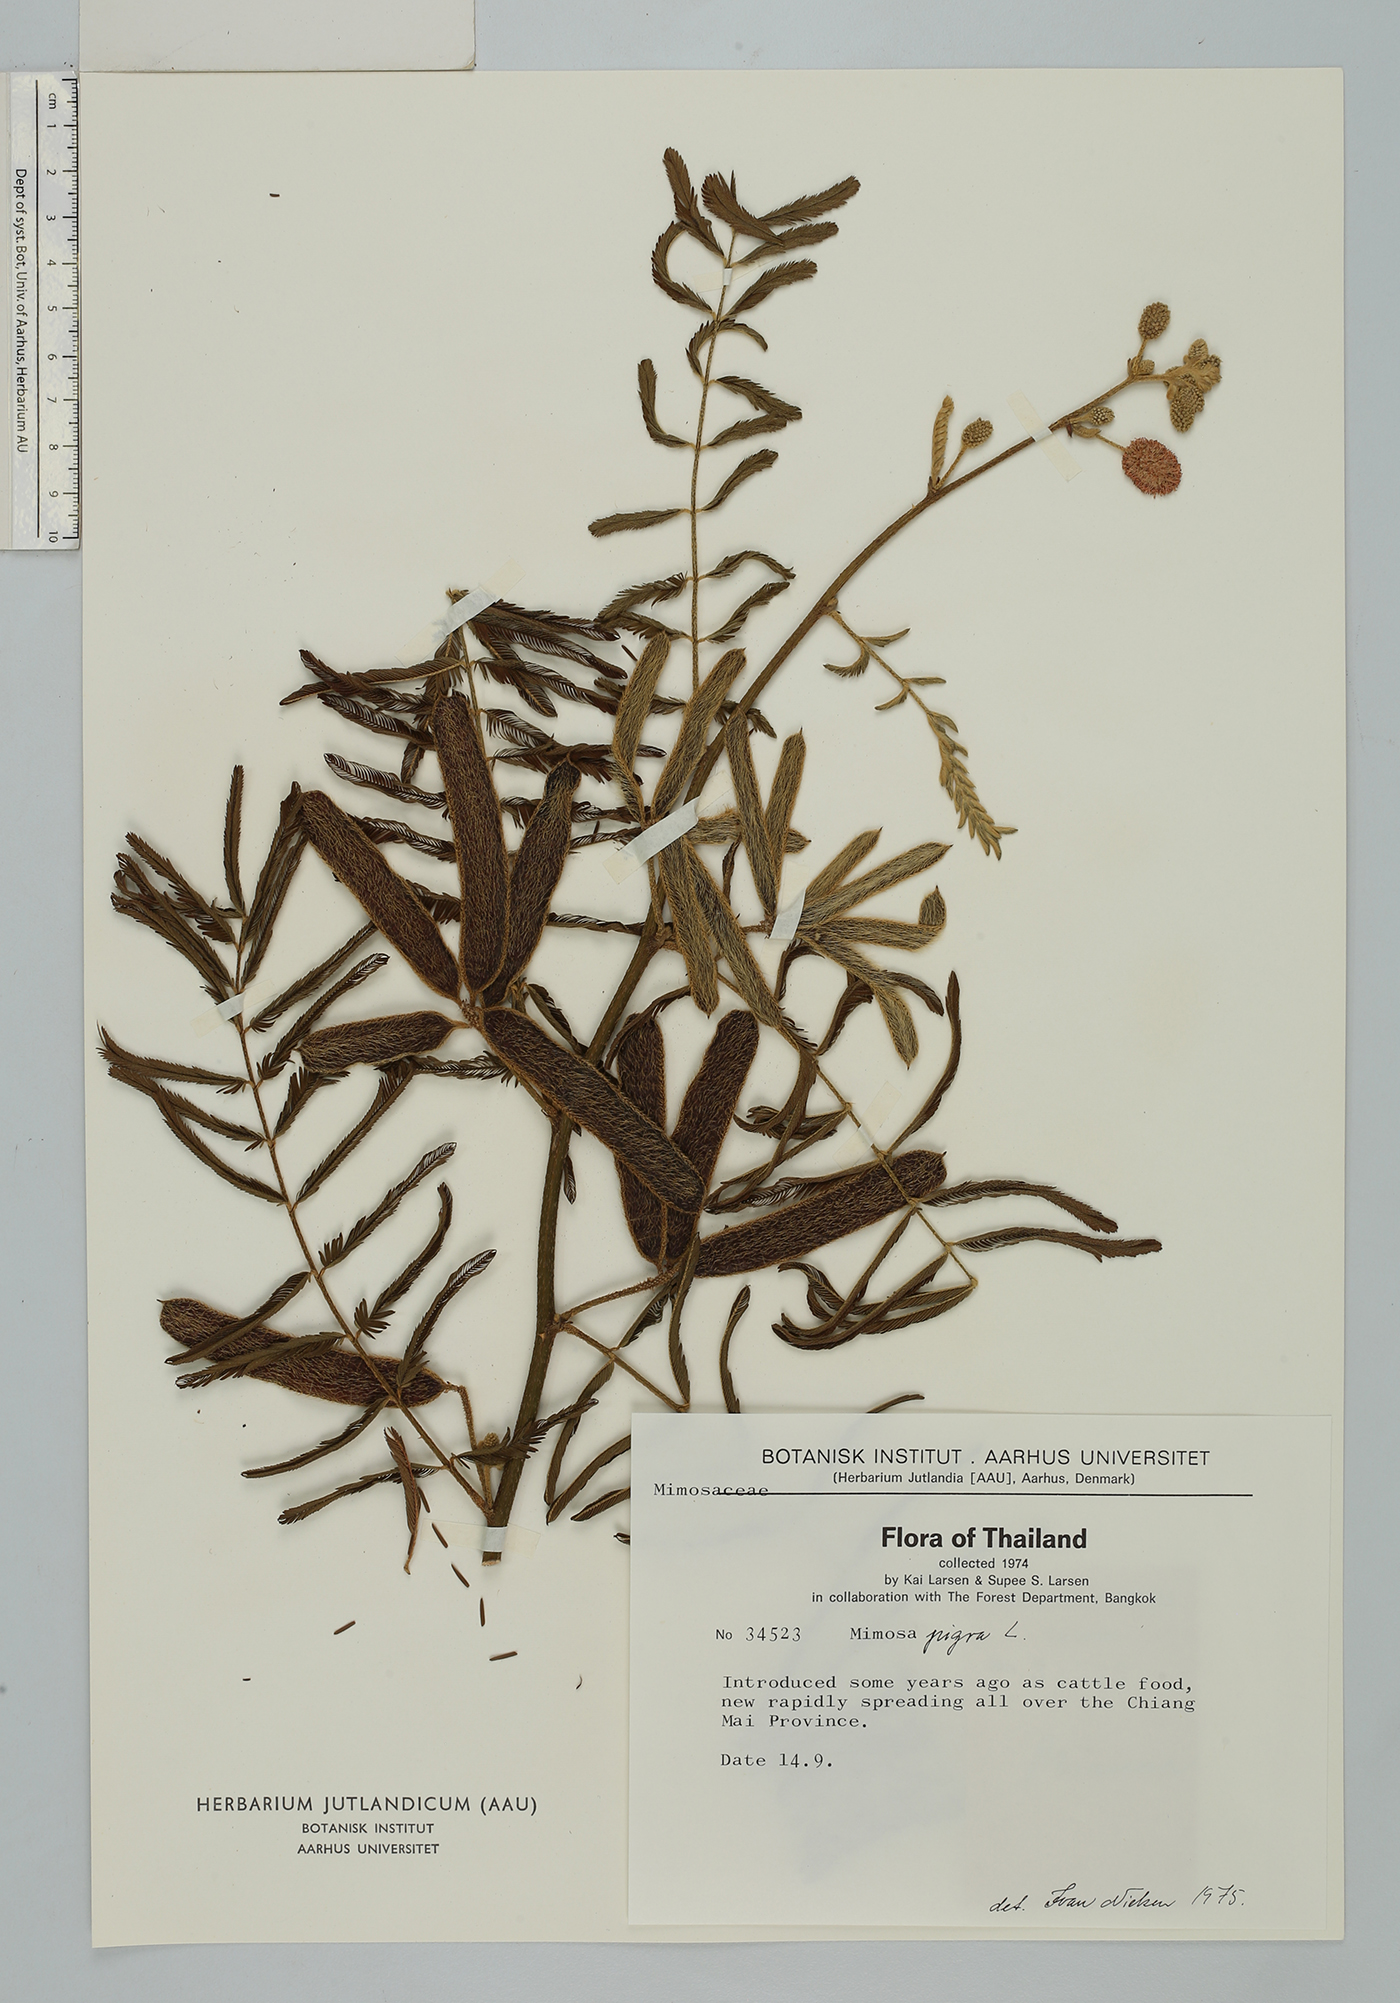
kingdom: Plantae
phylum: Tracheophyta
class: Magnoliopsida
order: Fabales
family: Fabaceae
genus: Mimosa
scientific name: Mimosa pigra
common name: Black mimosa
